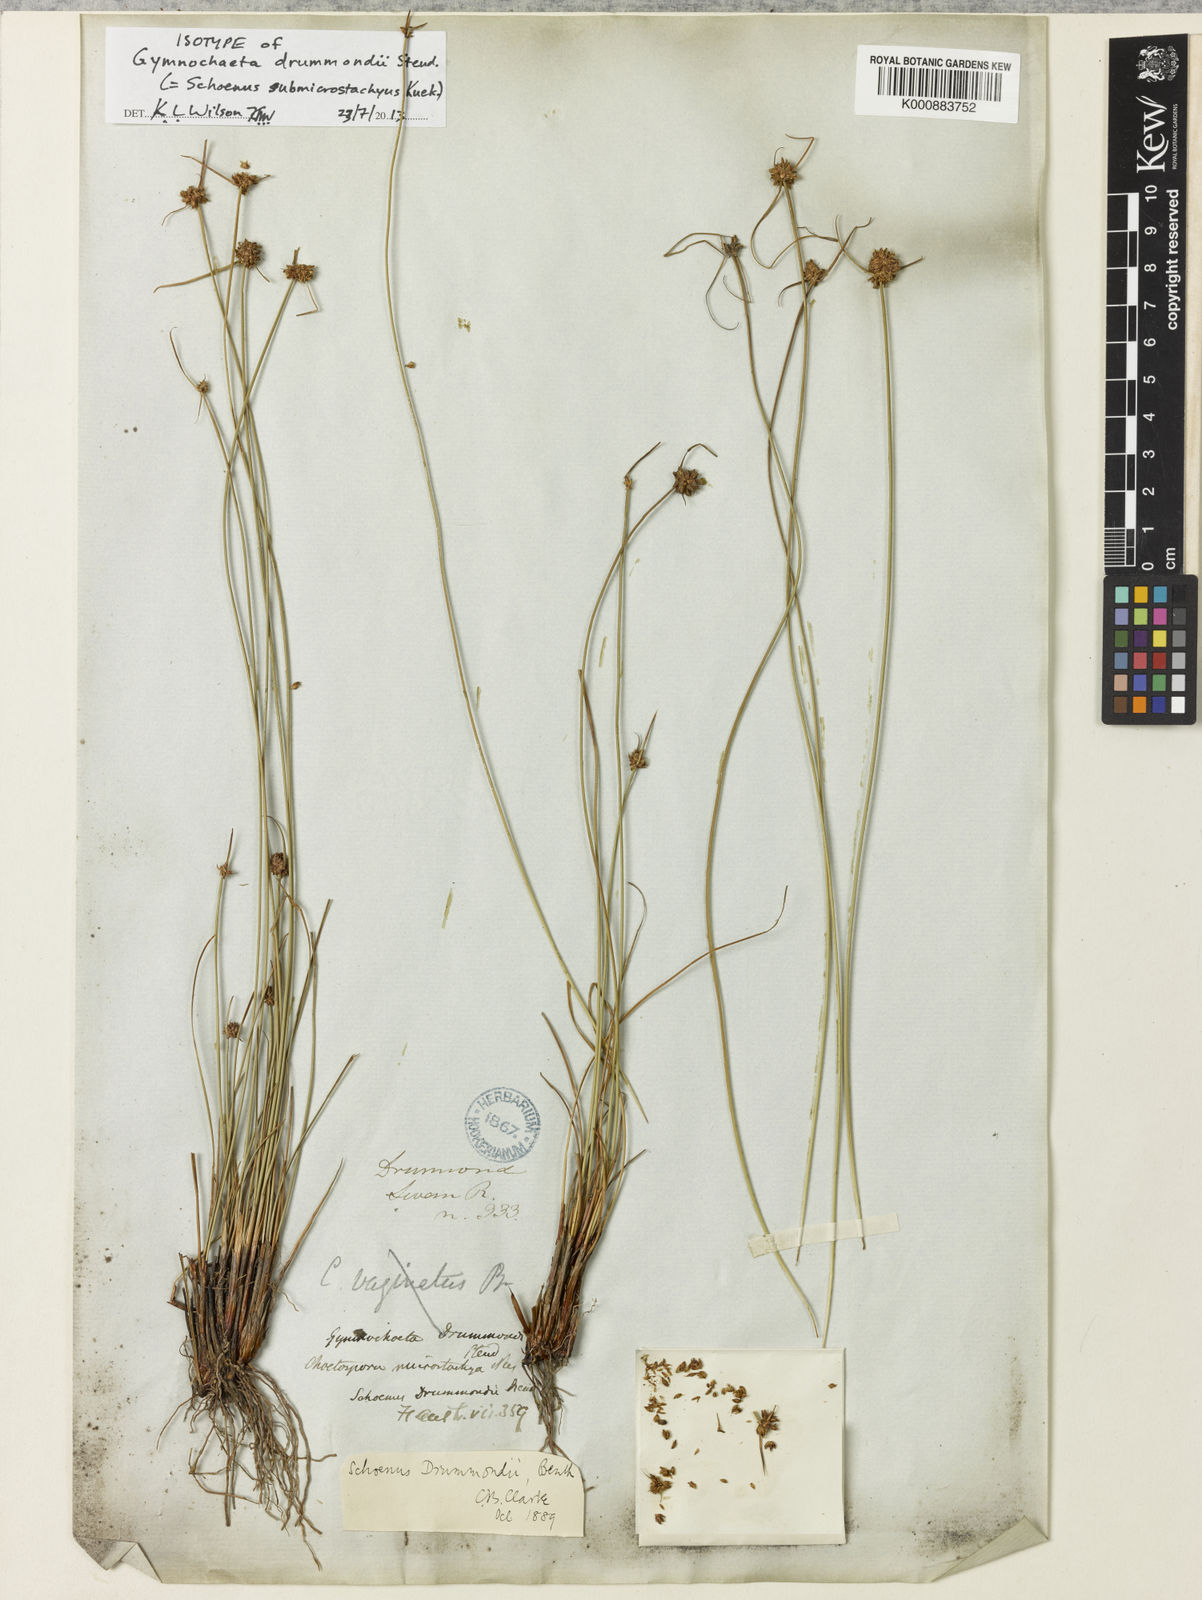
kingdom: Plantae
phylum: Tracheophyta
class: Liliopsida
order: Poales
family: Cyperaceae
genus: Schoenus
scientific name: Schoenus
